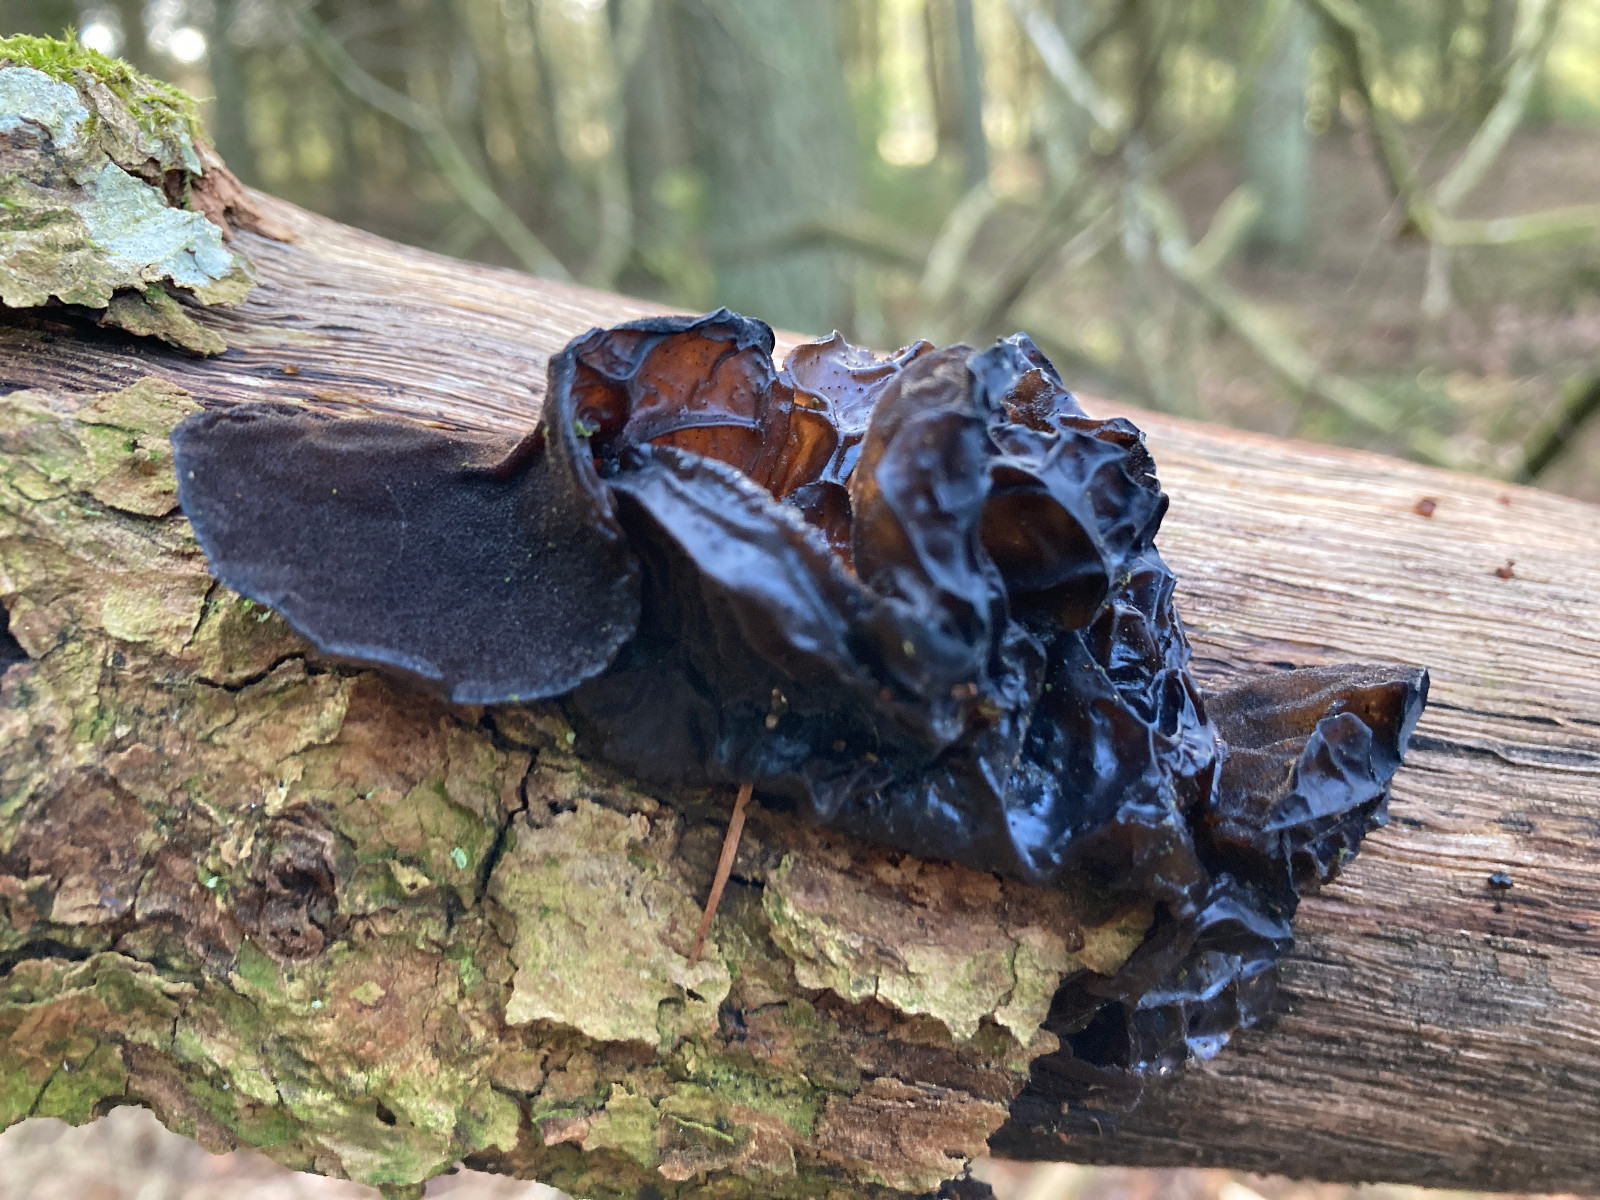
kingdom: Fungi
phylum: Basidiomycota
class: Agaricomycetes
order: Auriculariales
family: Auriculariaceae
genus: Exidia
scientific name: Exidia glandulosa
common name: ege-bævretop
